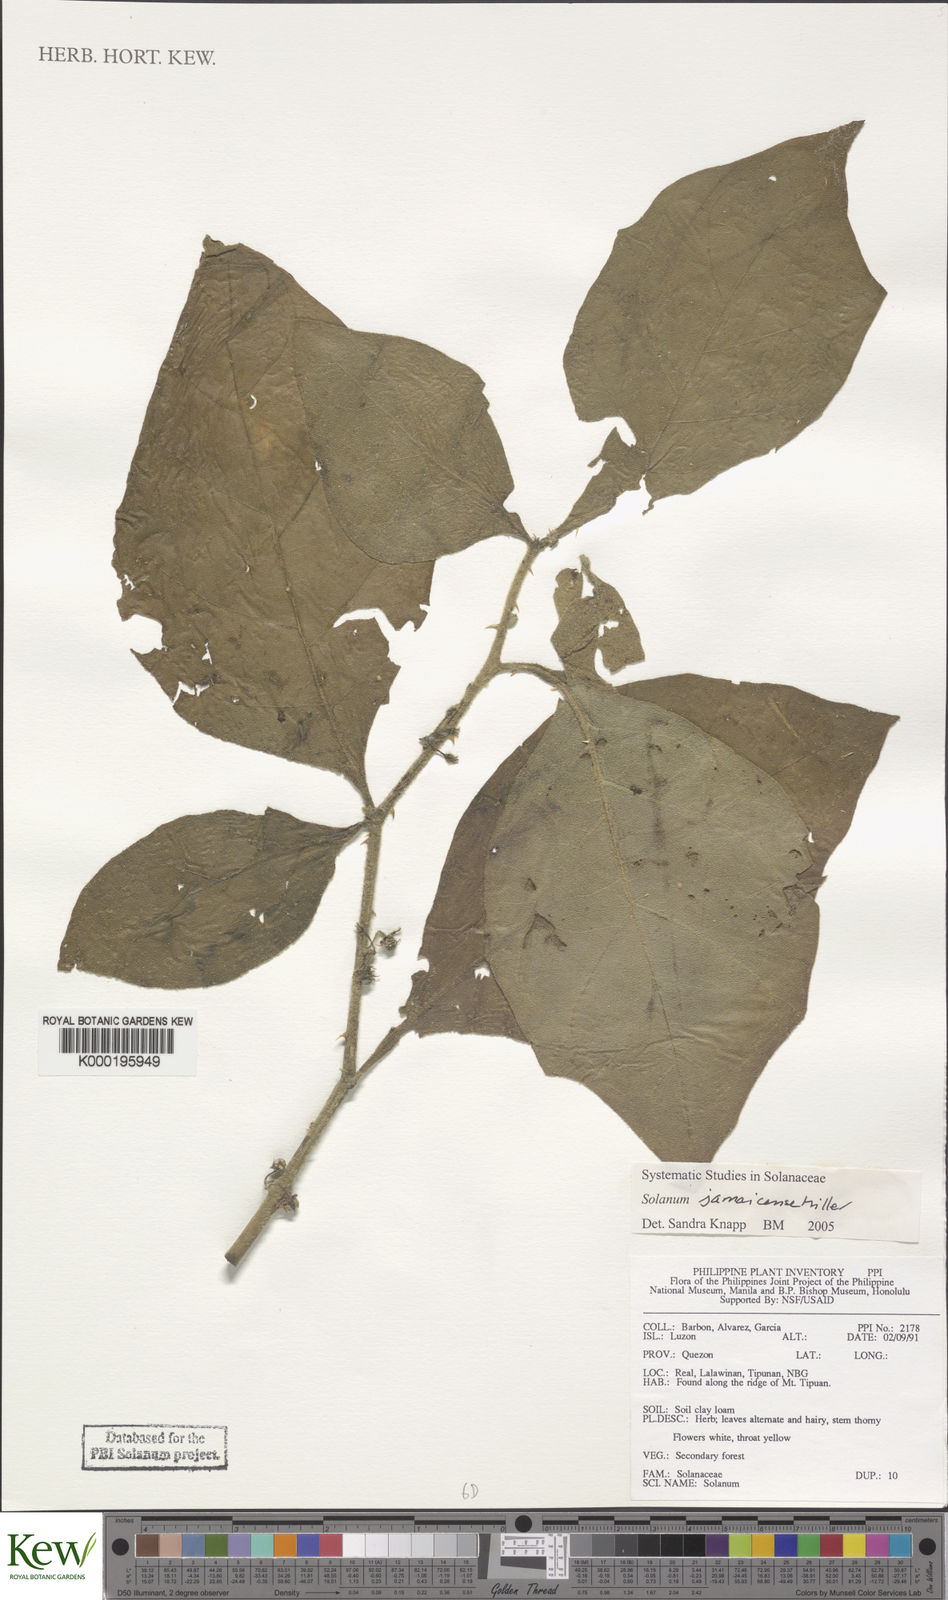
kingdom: Plantae
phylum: Tracheophyta
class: Magnoliopsida
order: Solanales
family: Solanaceae
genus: Solanum
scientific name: Solanum jamaicense
